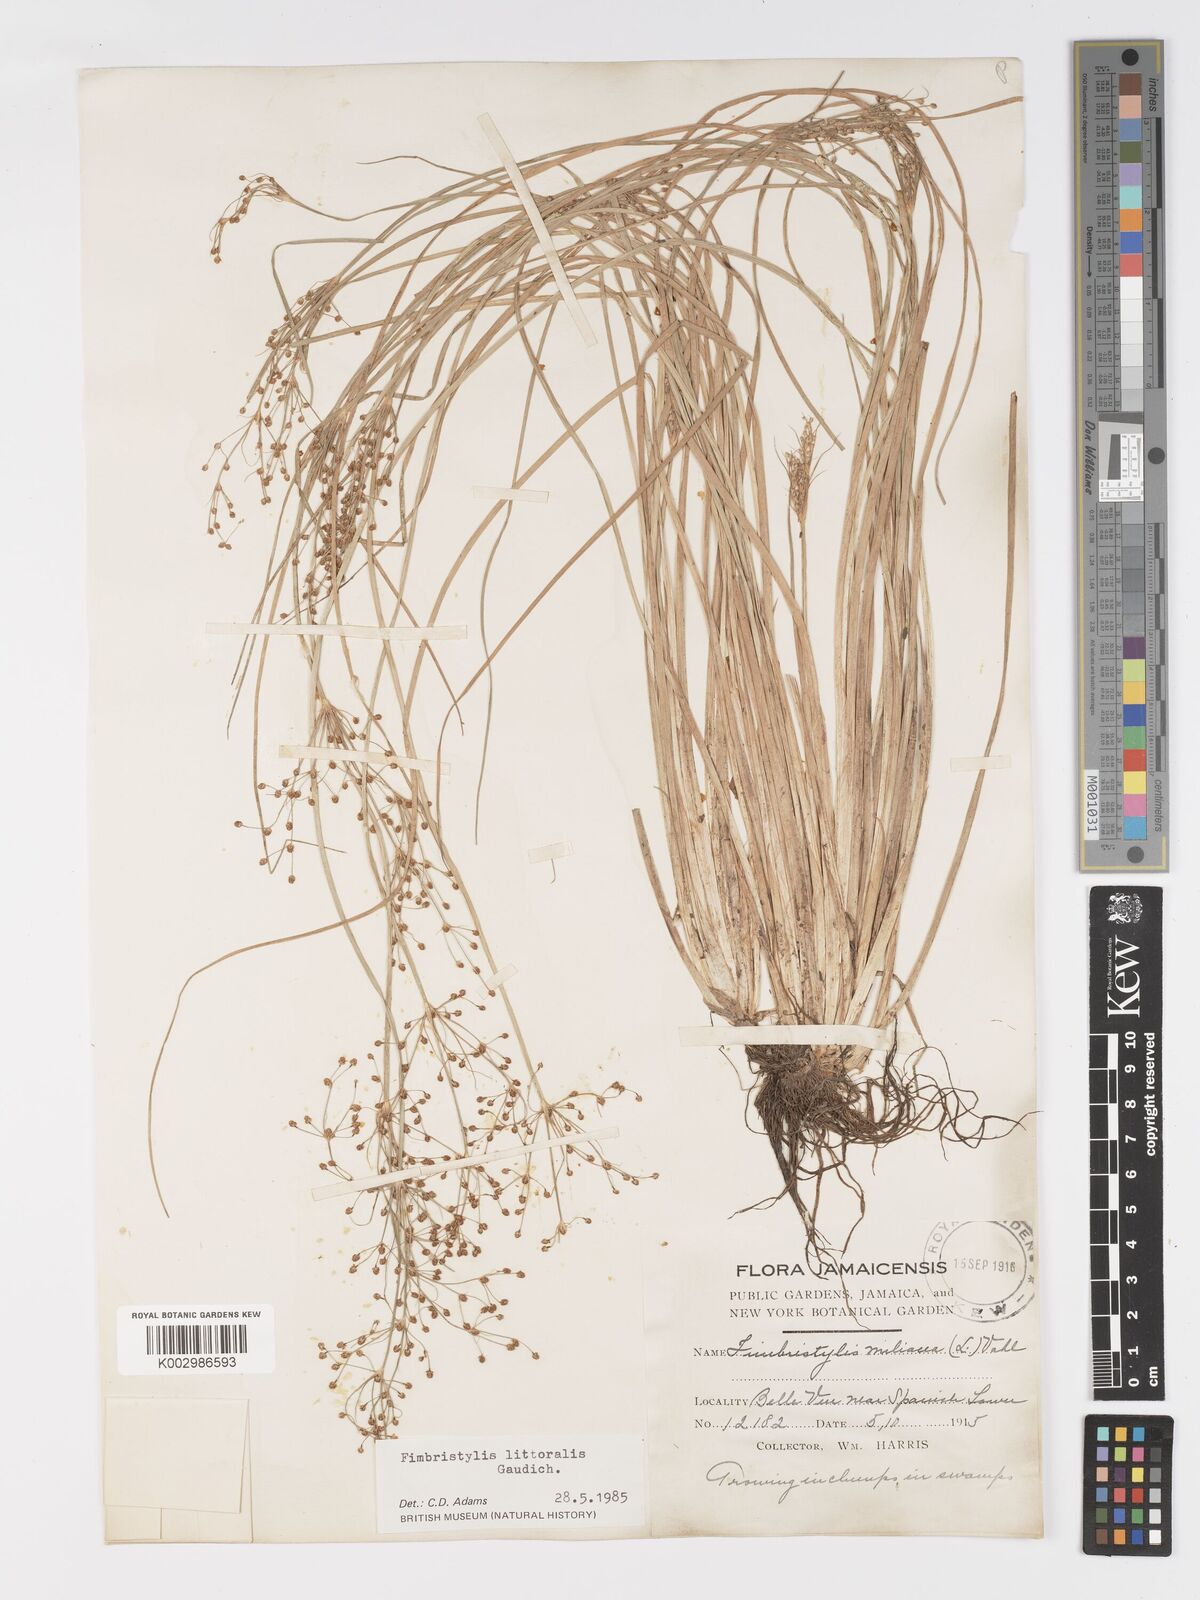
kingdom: Plantae
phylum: Tracheophyta
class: Liliopsida
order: Poales
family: Cyperaceae
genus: Fimbristylis
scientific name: Fimbristylis littoralis
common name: Fimbry
